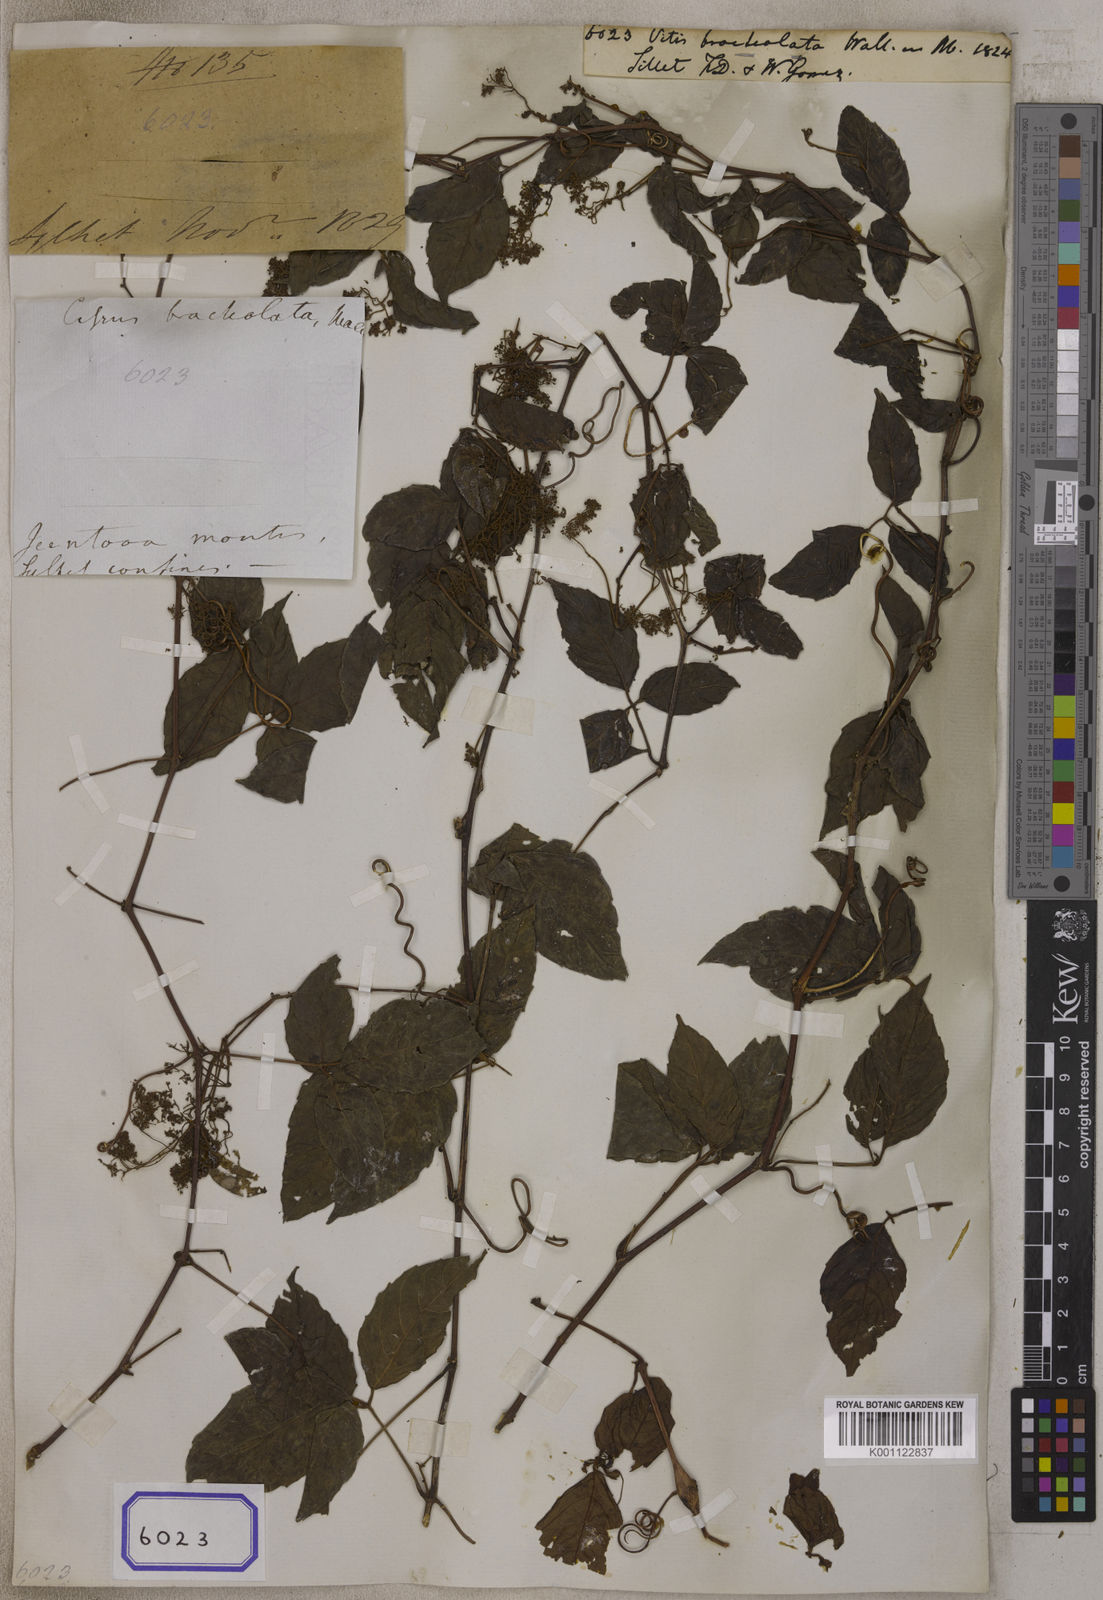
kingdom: Plantae
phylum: Tracheophyta
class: Magnoliopsida
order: Vitales
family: Vitaceae
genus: Vitis
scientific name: Vitis
